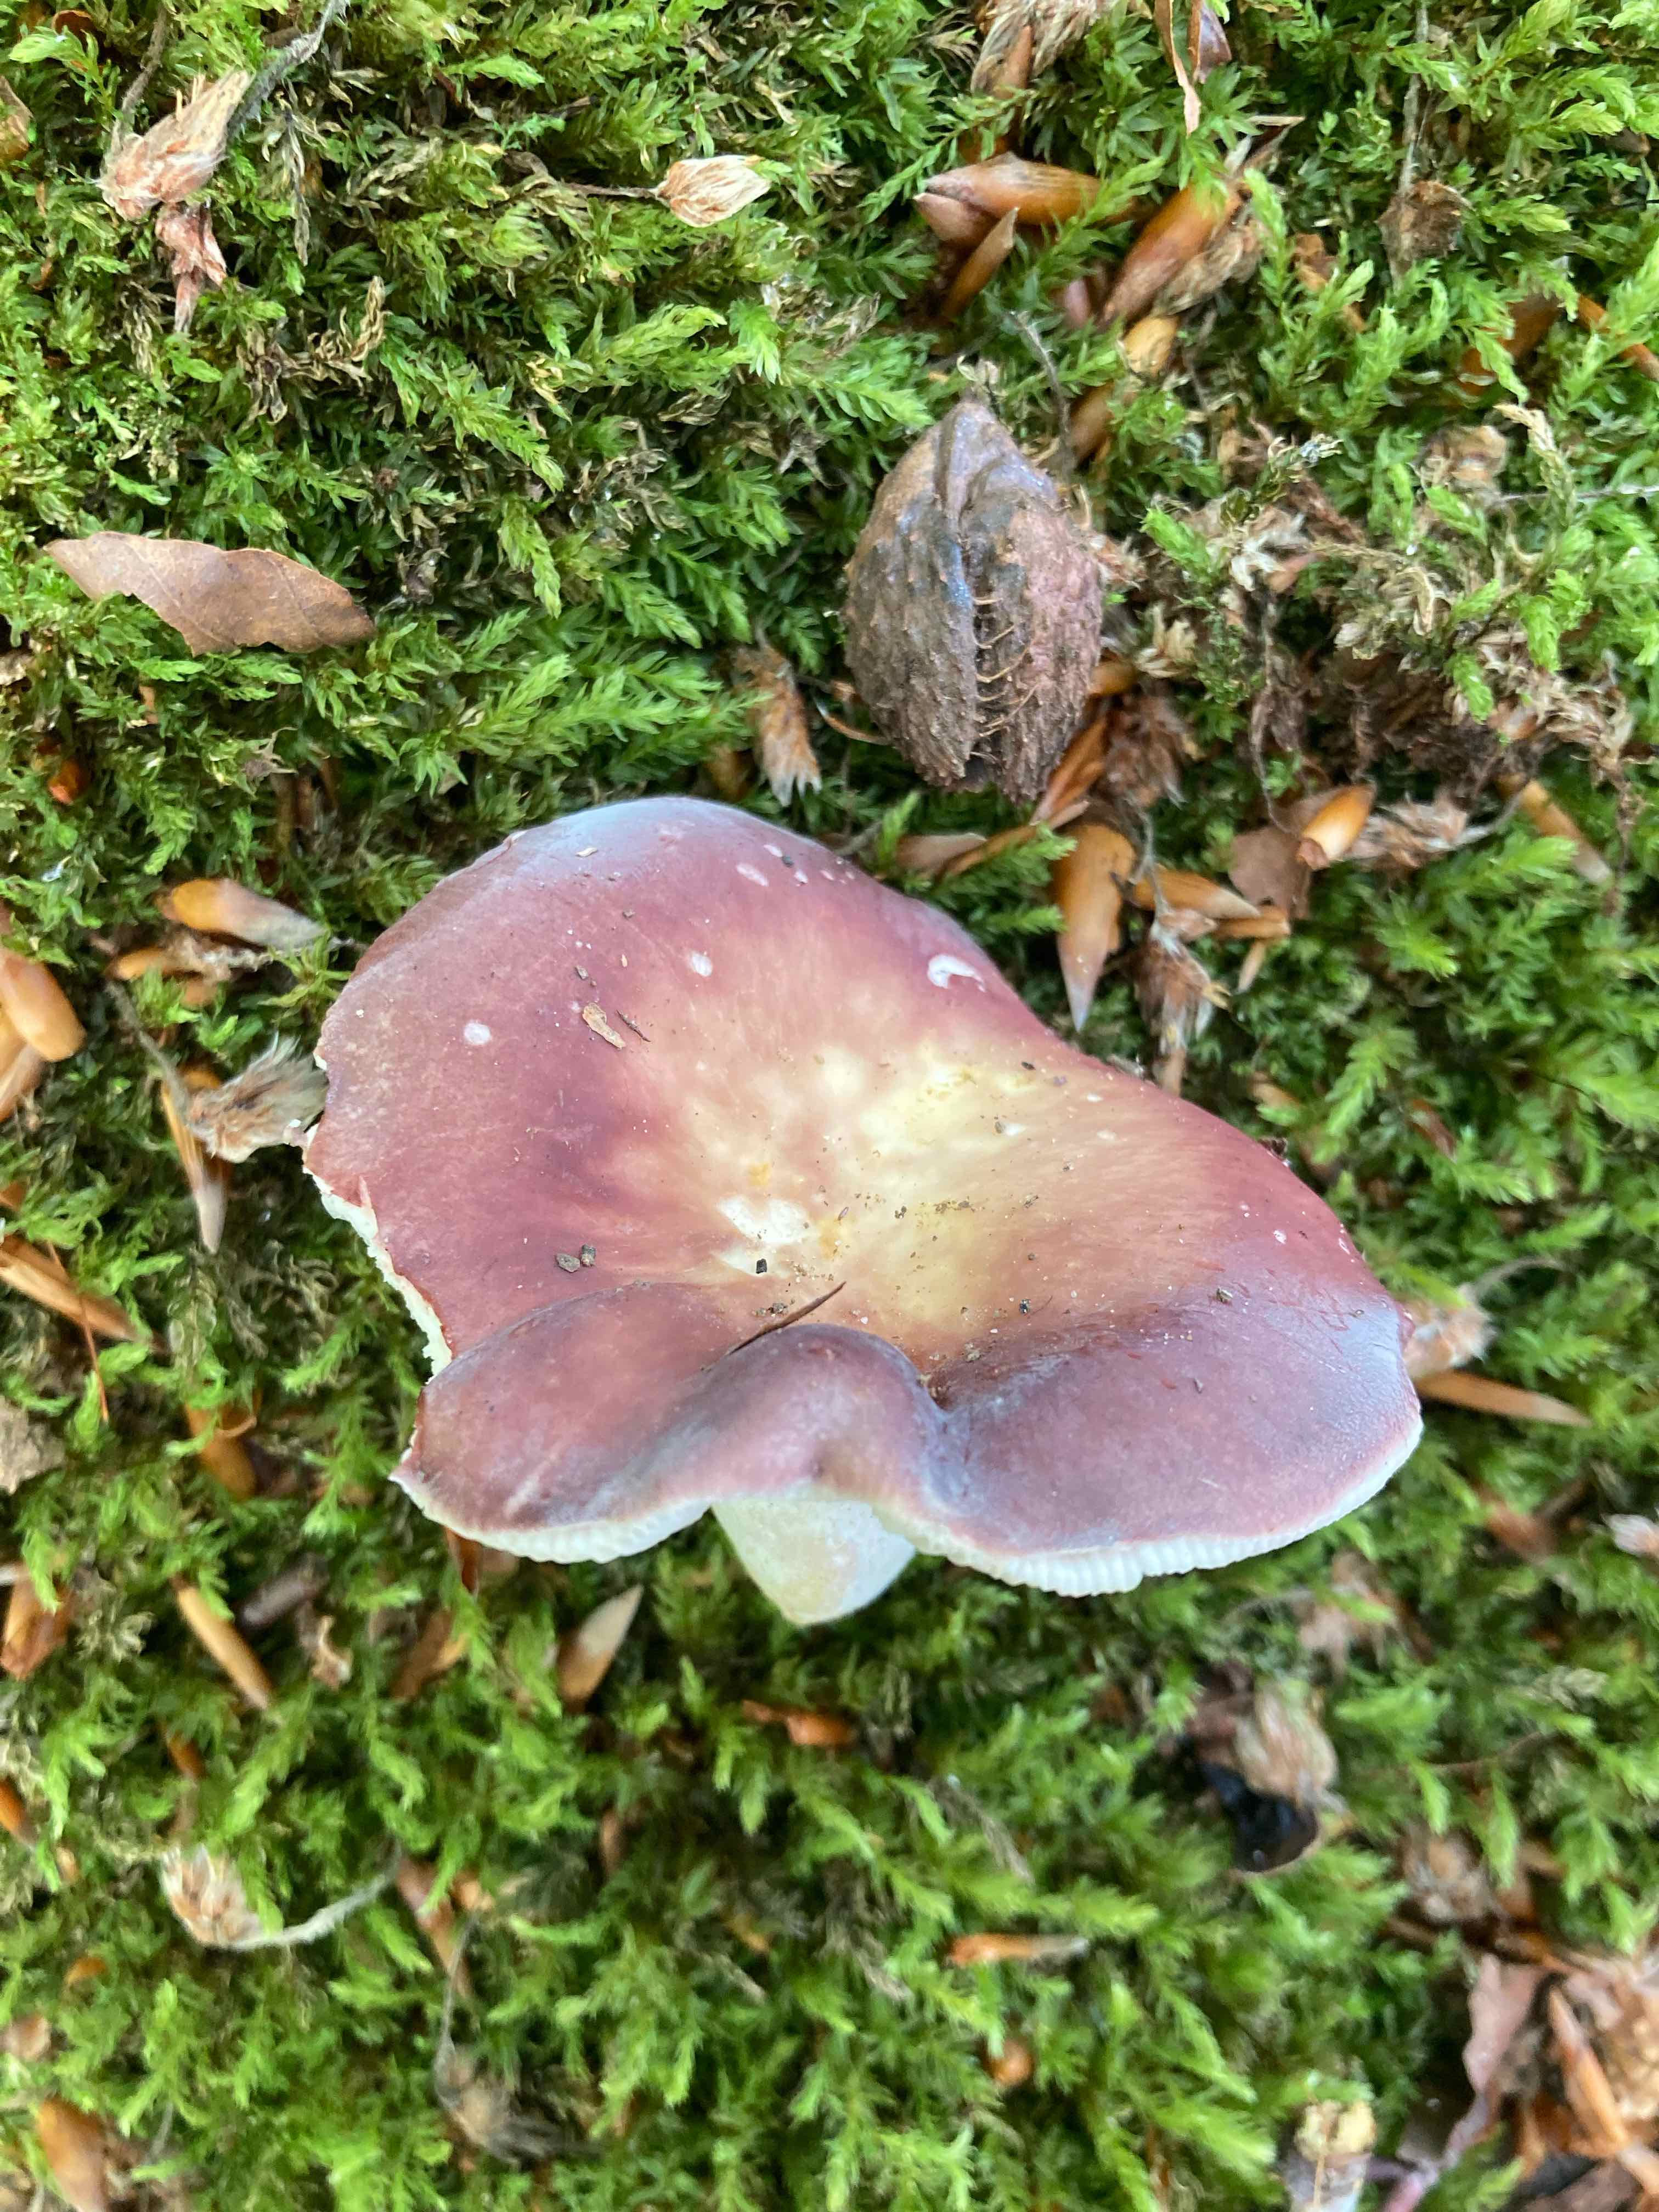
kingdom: Fungi
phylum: Basidiomycota
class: Agaricomycetes
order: Russulales
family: Russulaceae
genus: Russula
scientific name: Russula vesca
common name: spiselig skørhat
